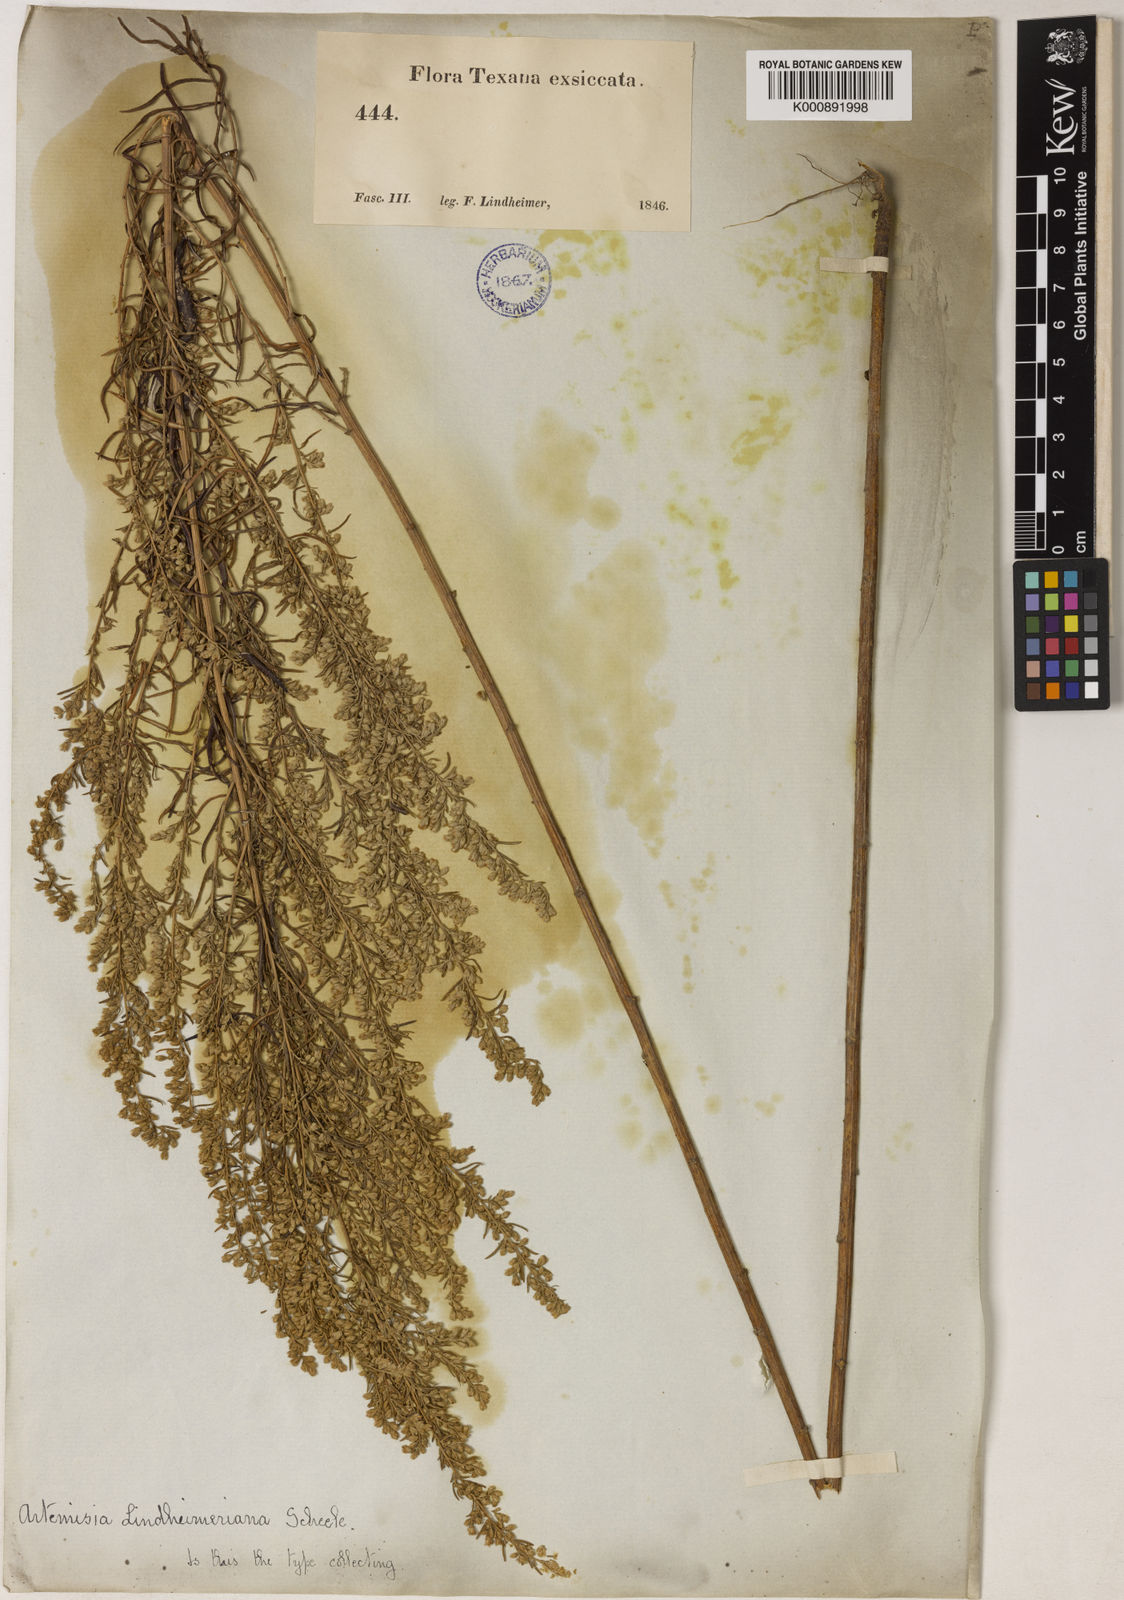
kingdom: Plantae
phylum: Tracheophyta
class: Magnoliopsida
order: Asterales
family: Asteraceae
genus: Artemisia
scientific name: Artemisia ludoviciana
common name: Western mugwort
